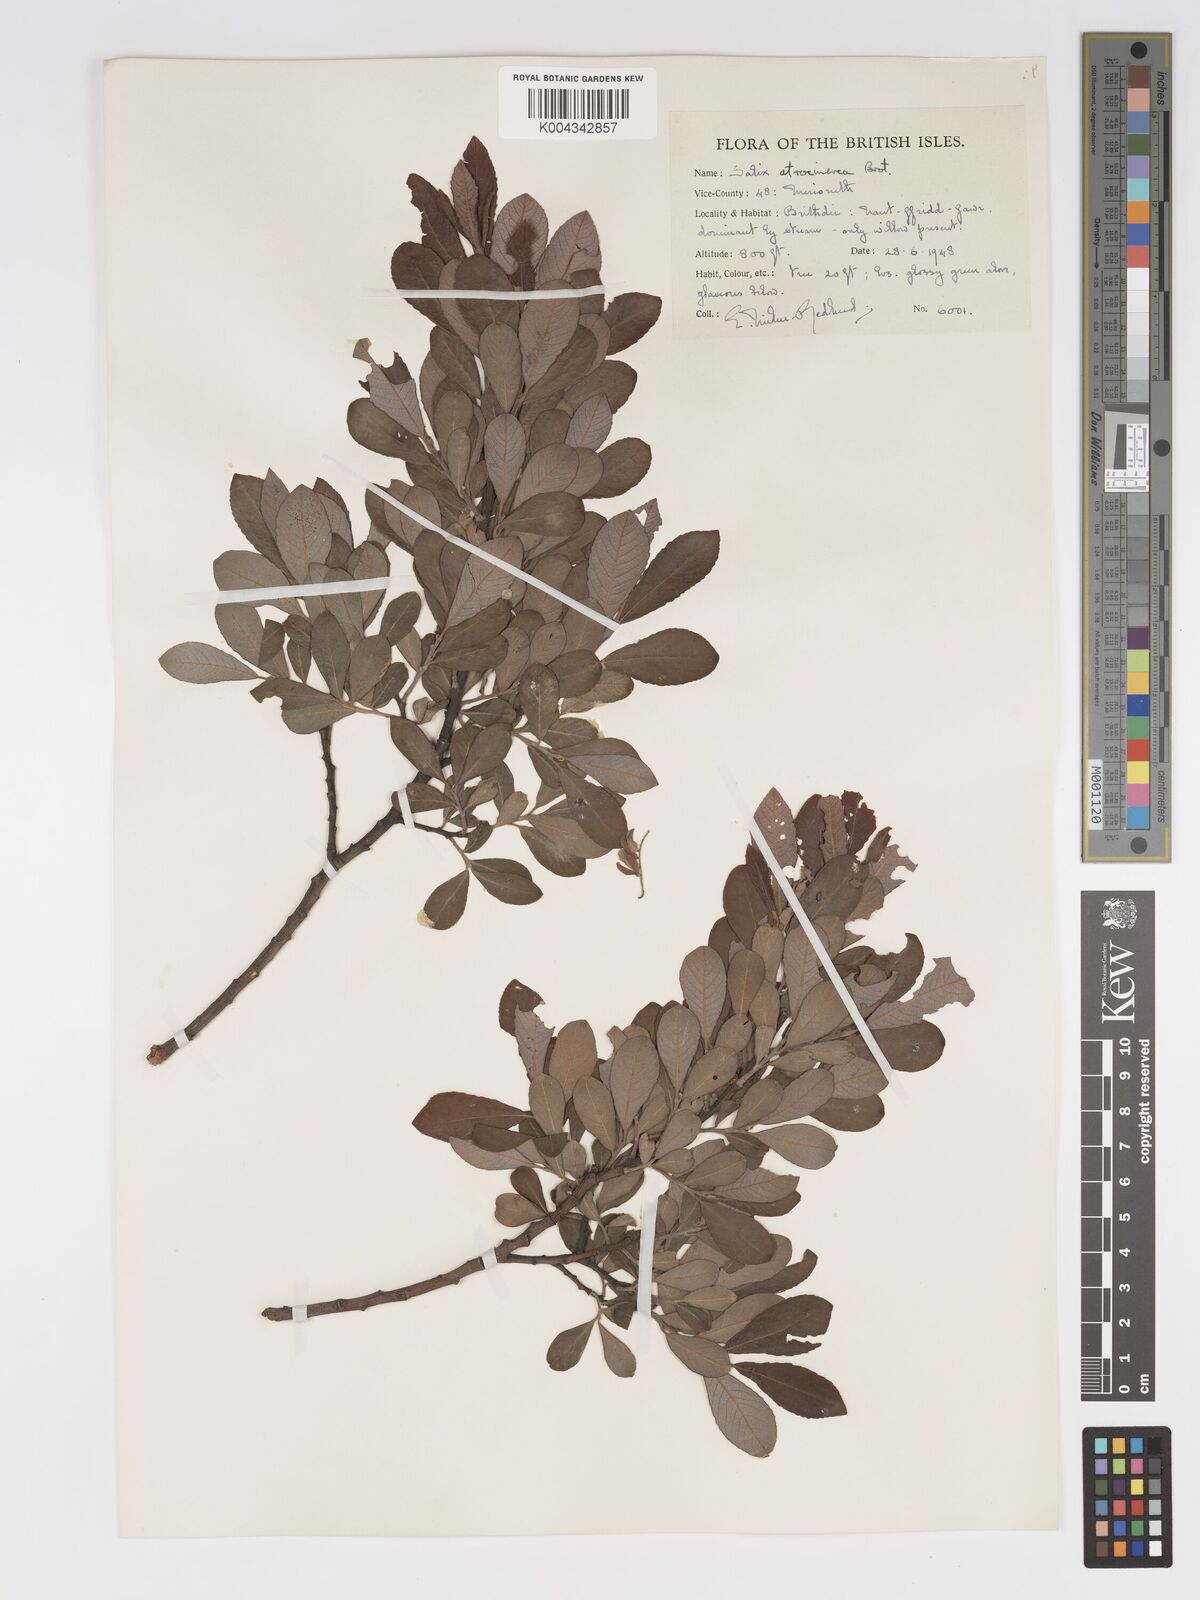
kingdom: Plantae
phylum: Tracheophyta
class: Magnoliopsida
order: Malpighiales
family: Salicaceae
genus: Salix
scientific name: Salix atrocinerea
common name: Rusty willow
